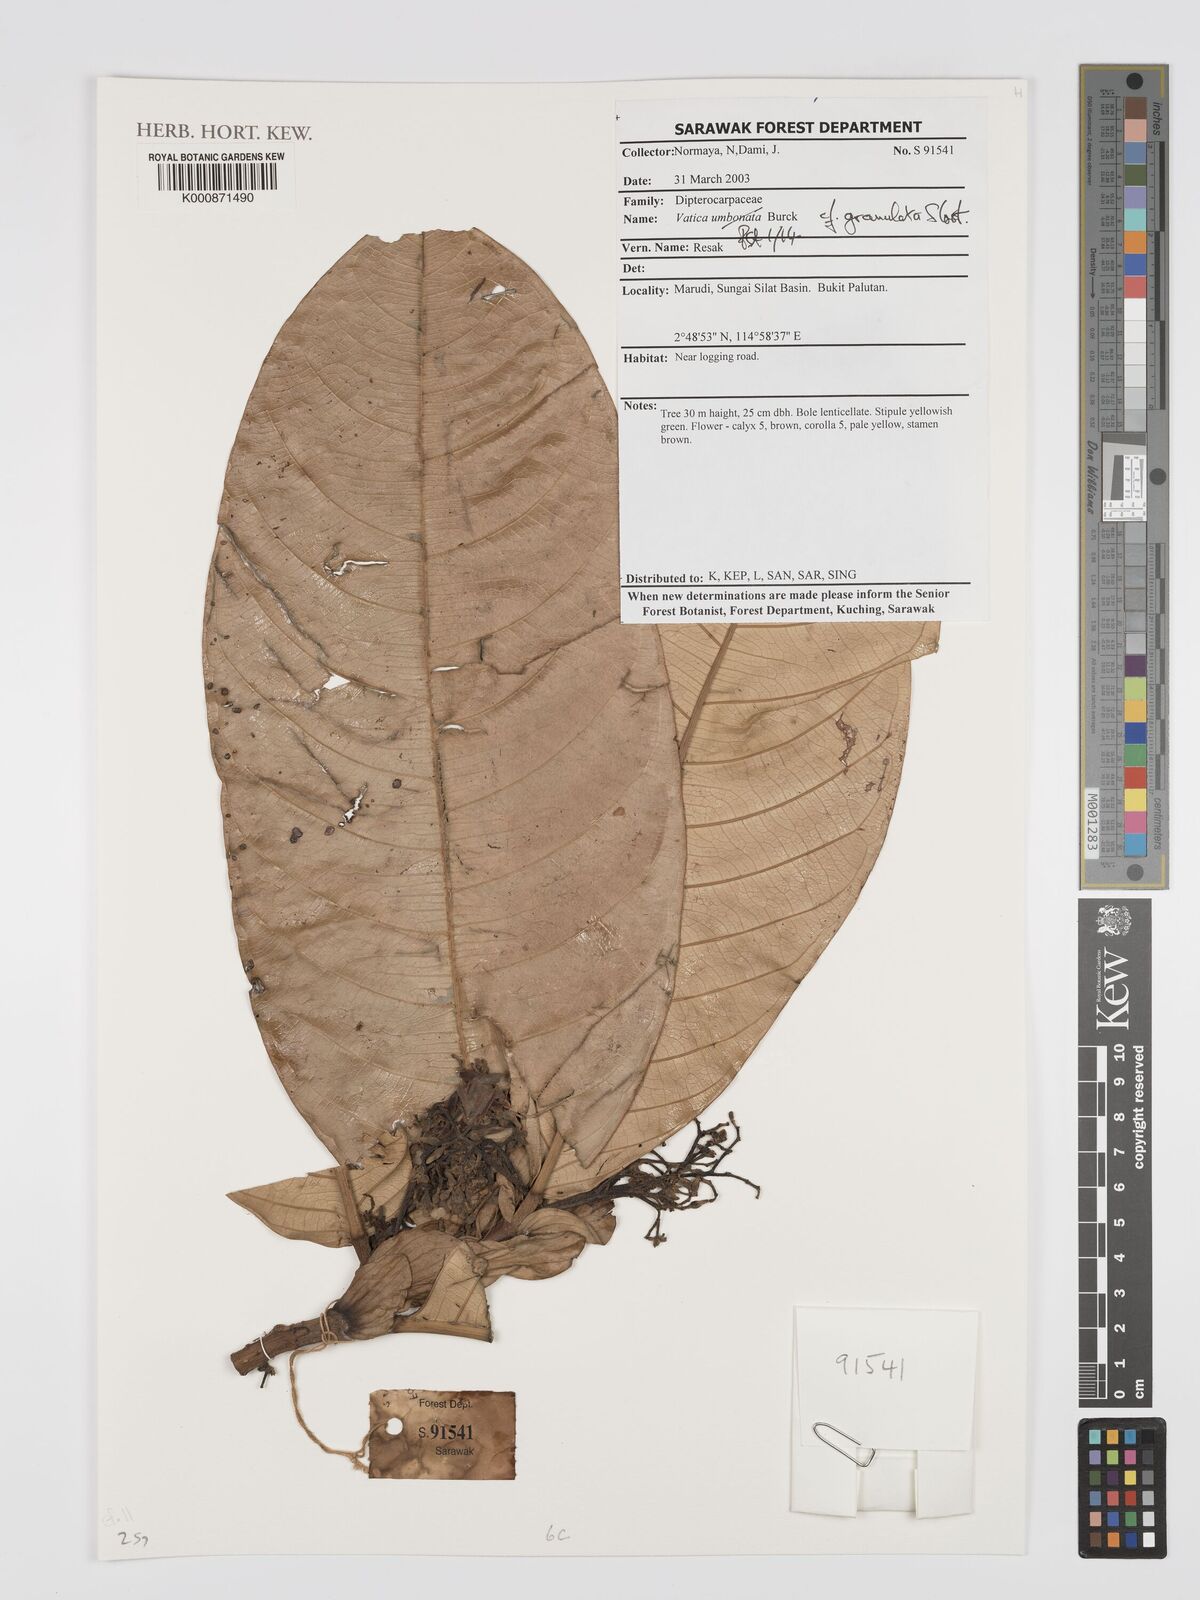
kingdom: Plantae
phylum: Tracheophyta
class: Magnoliopsida
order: Malvales
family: Dipterocarpaceae
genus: Vatica
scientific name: Vatica granulata
